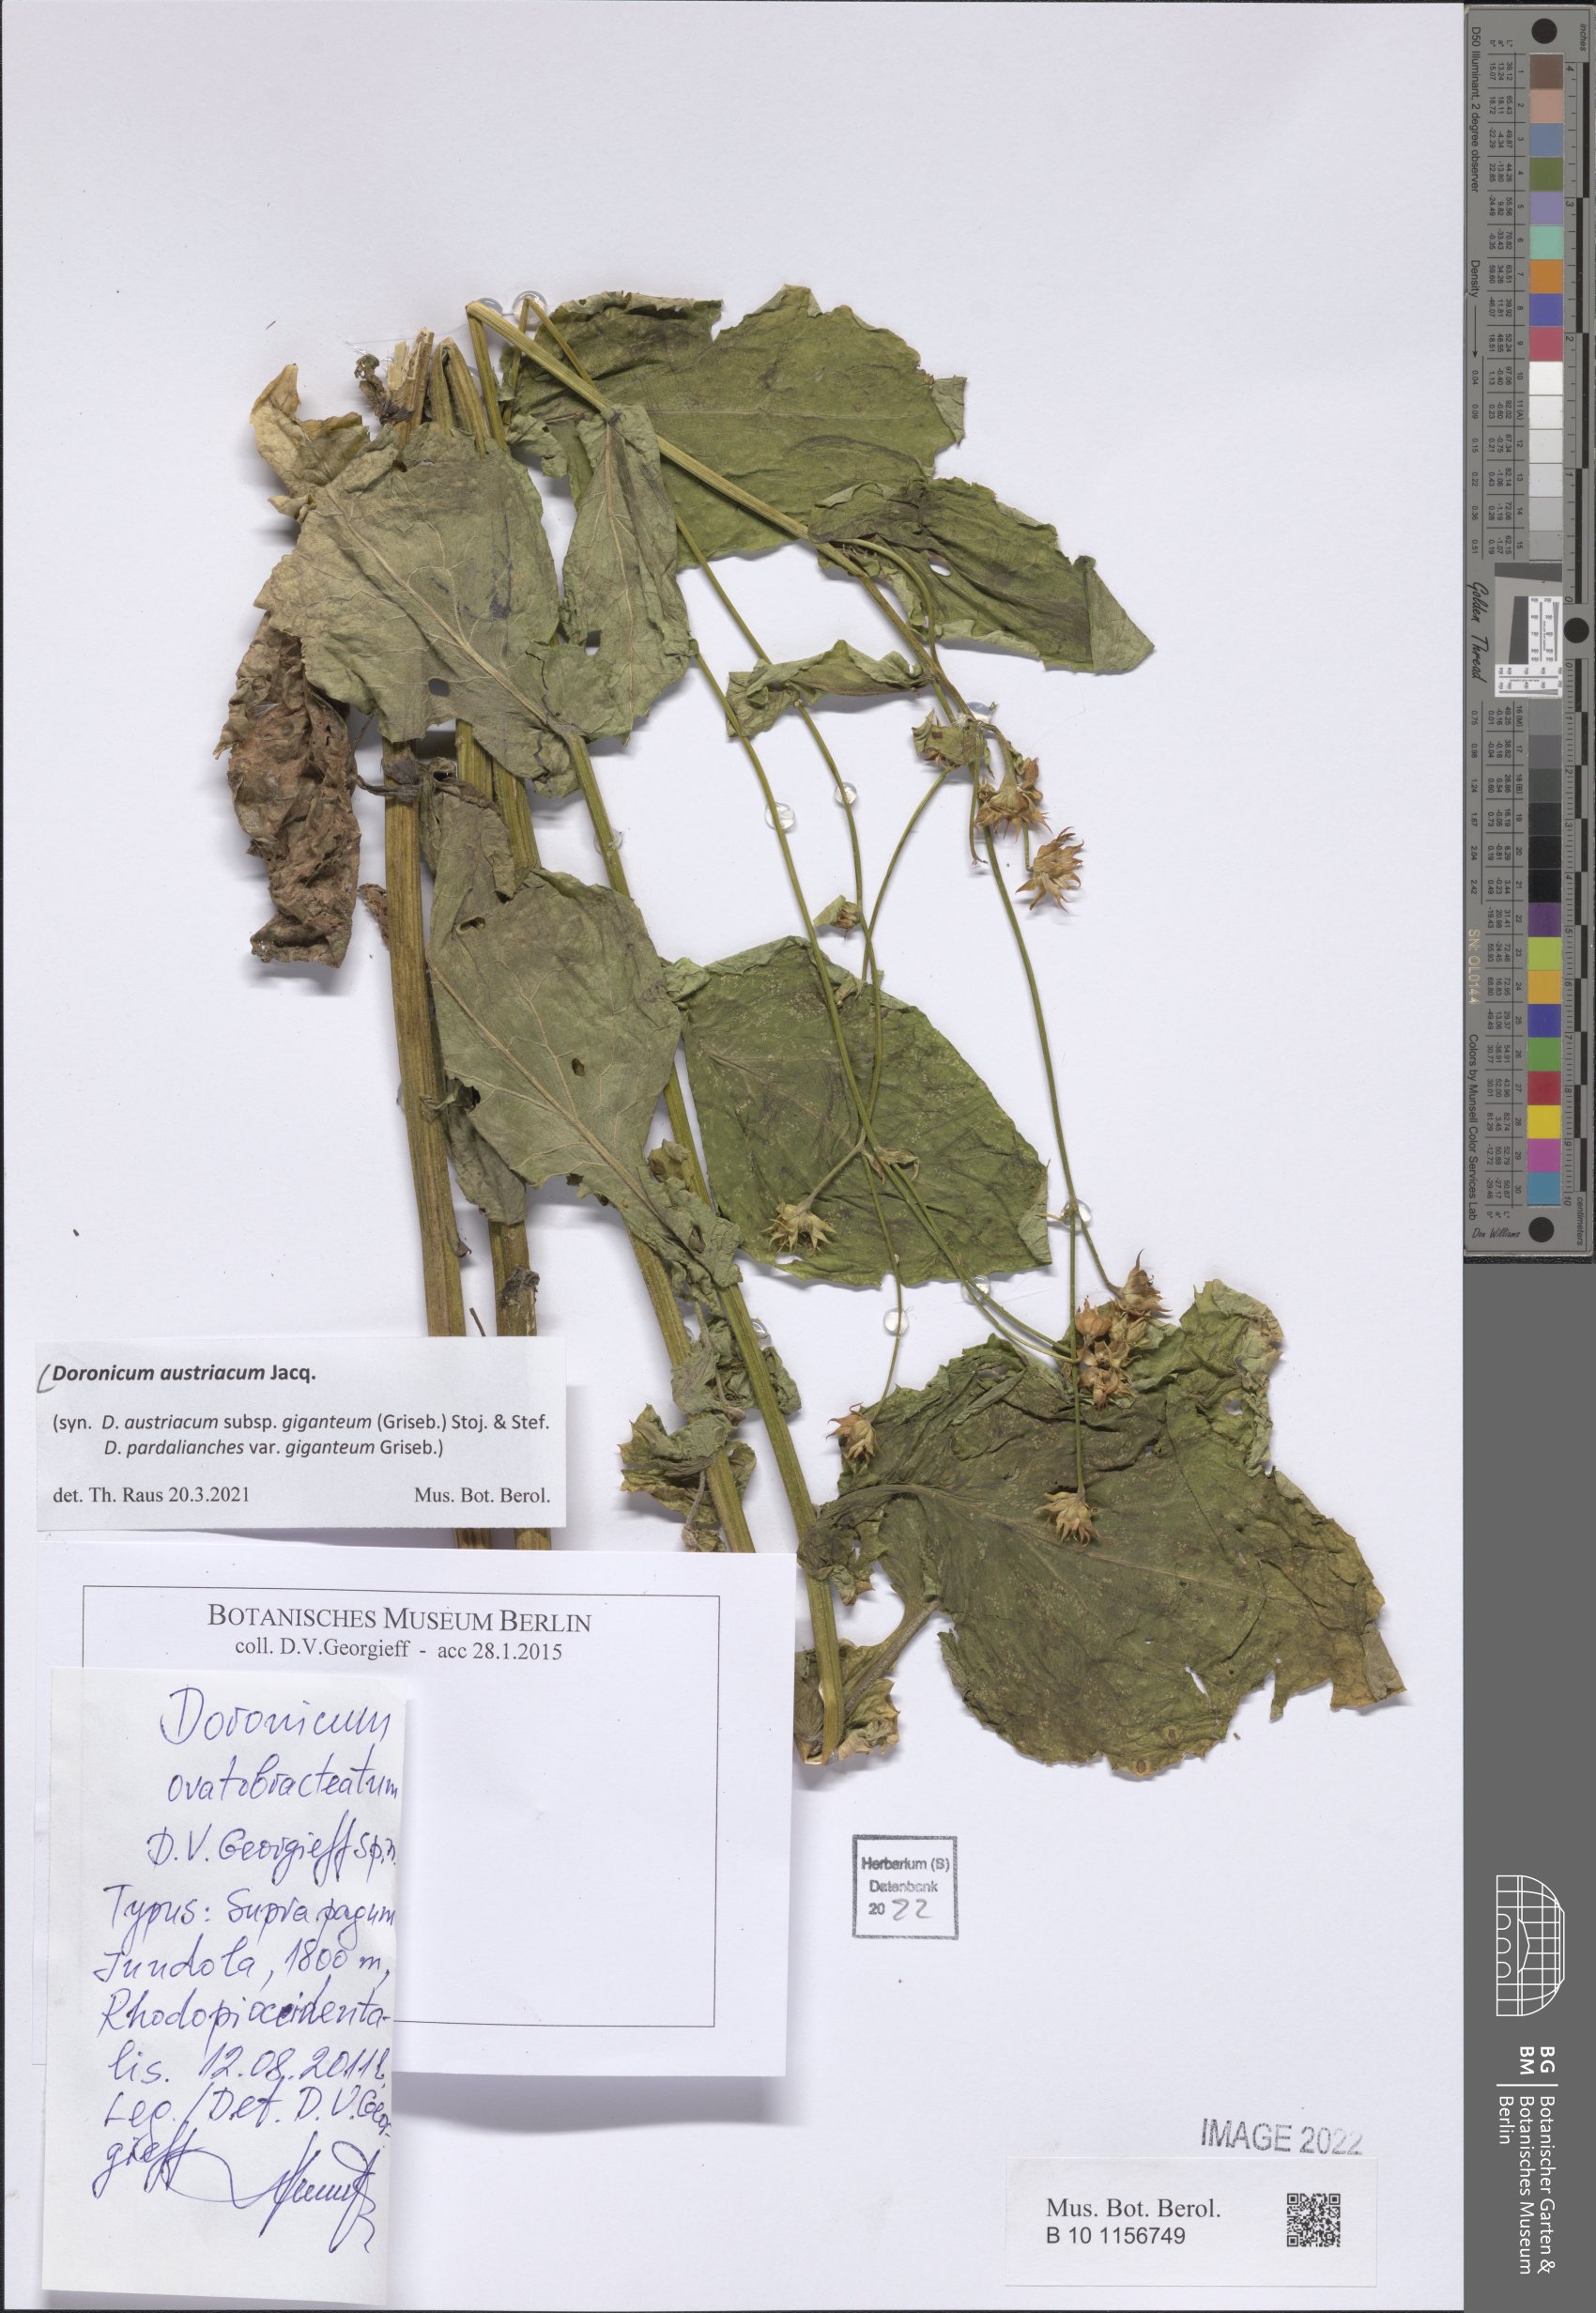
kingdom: Plantae
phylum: Tracheophyta
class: Magnoliopsida
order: Asterales
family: Asteraceae
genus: Doronicum
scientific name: Doronicum austriacum
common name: Austrian leopard's-bane
